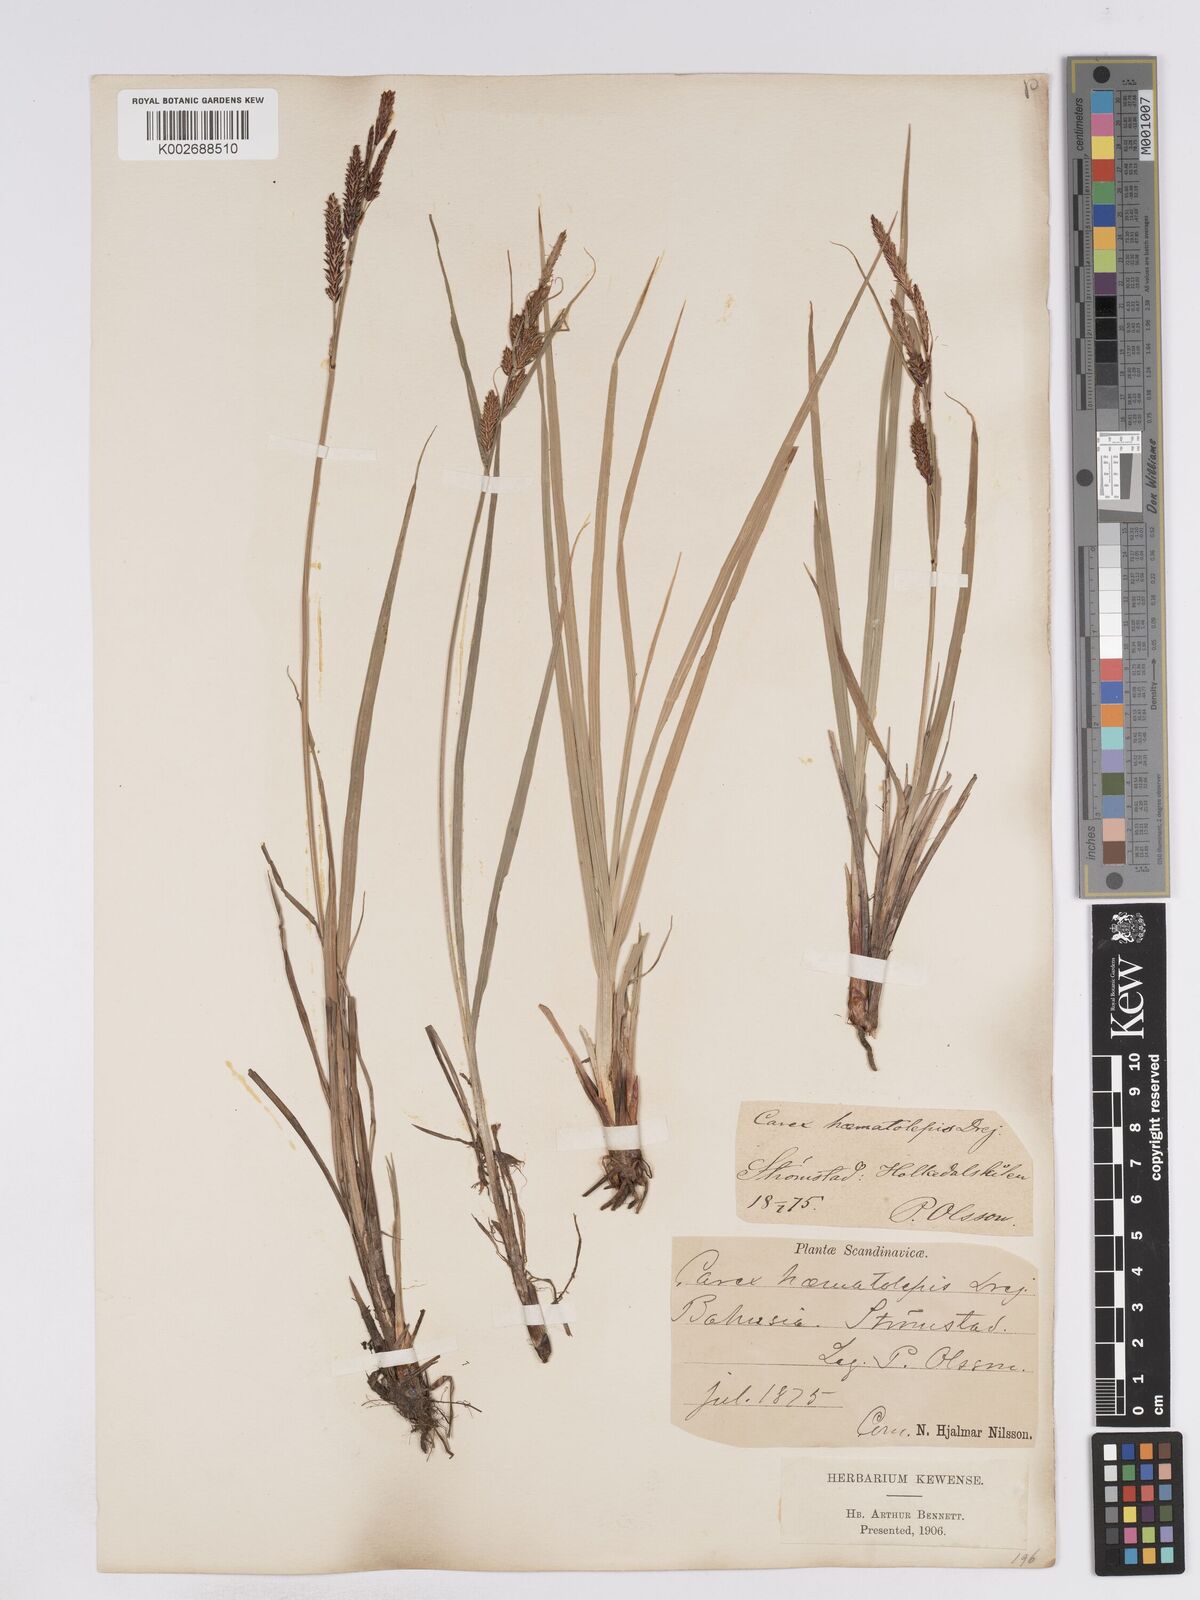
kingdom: Plantae
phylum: Tracheophyta
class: Liliopsida
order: Poales
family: Cyperaceae
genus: Carex
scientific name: Carex recta
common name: Estuarine sedge
